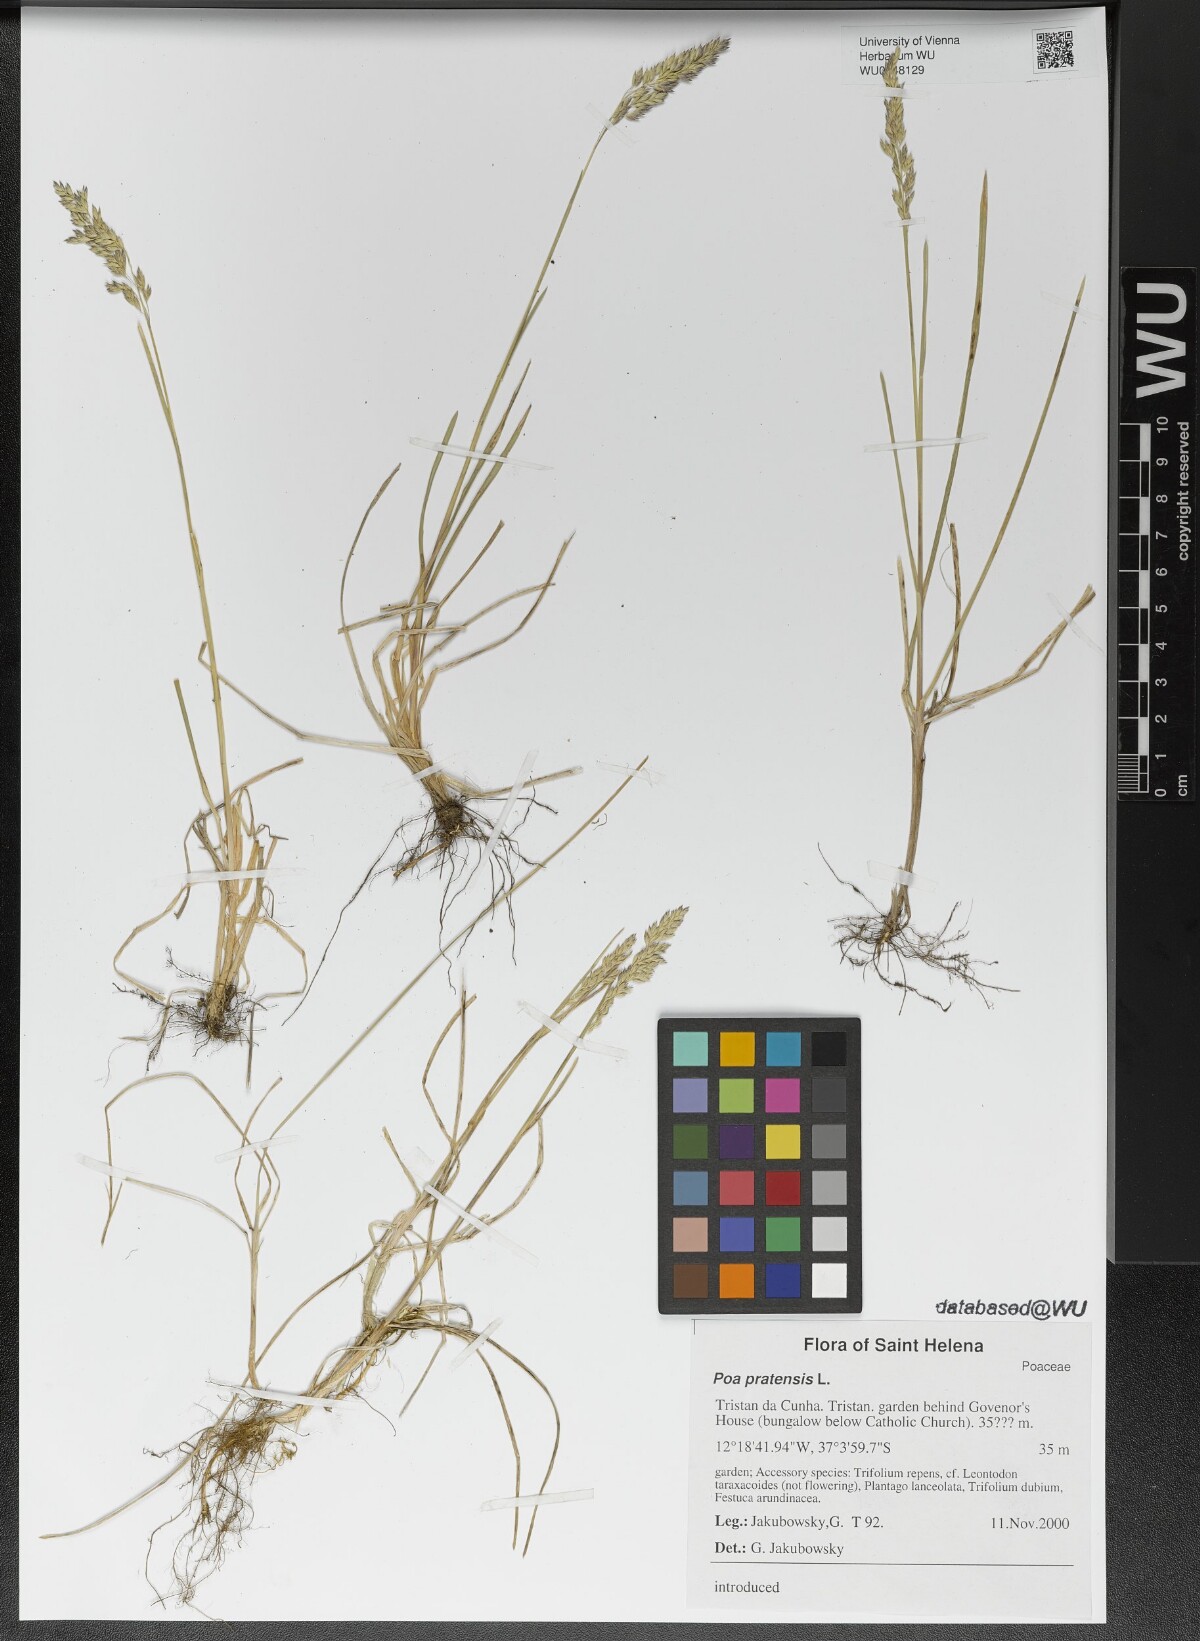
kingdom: Plantae
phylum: Tracheophyta
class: Liliopsida
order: Poales
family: Poaceae
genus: Poa
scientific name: Poa pratensis
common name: Kentucky bluegrass
